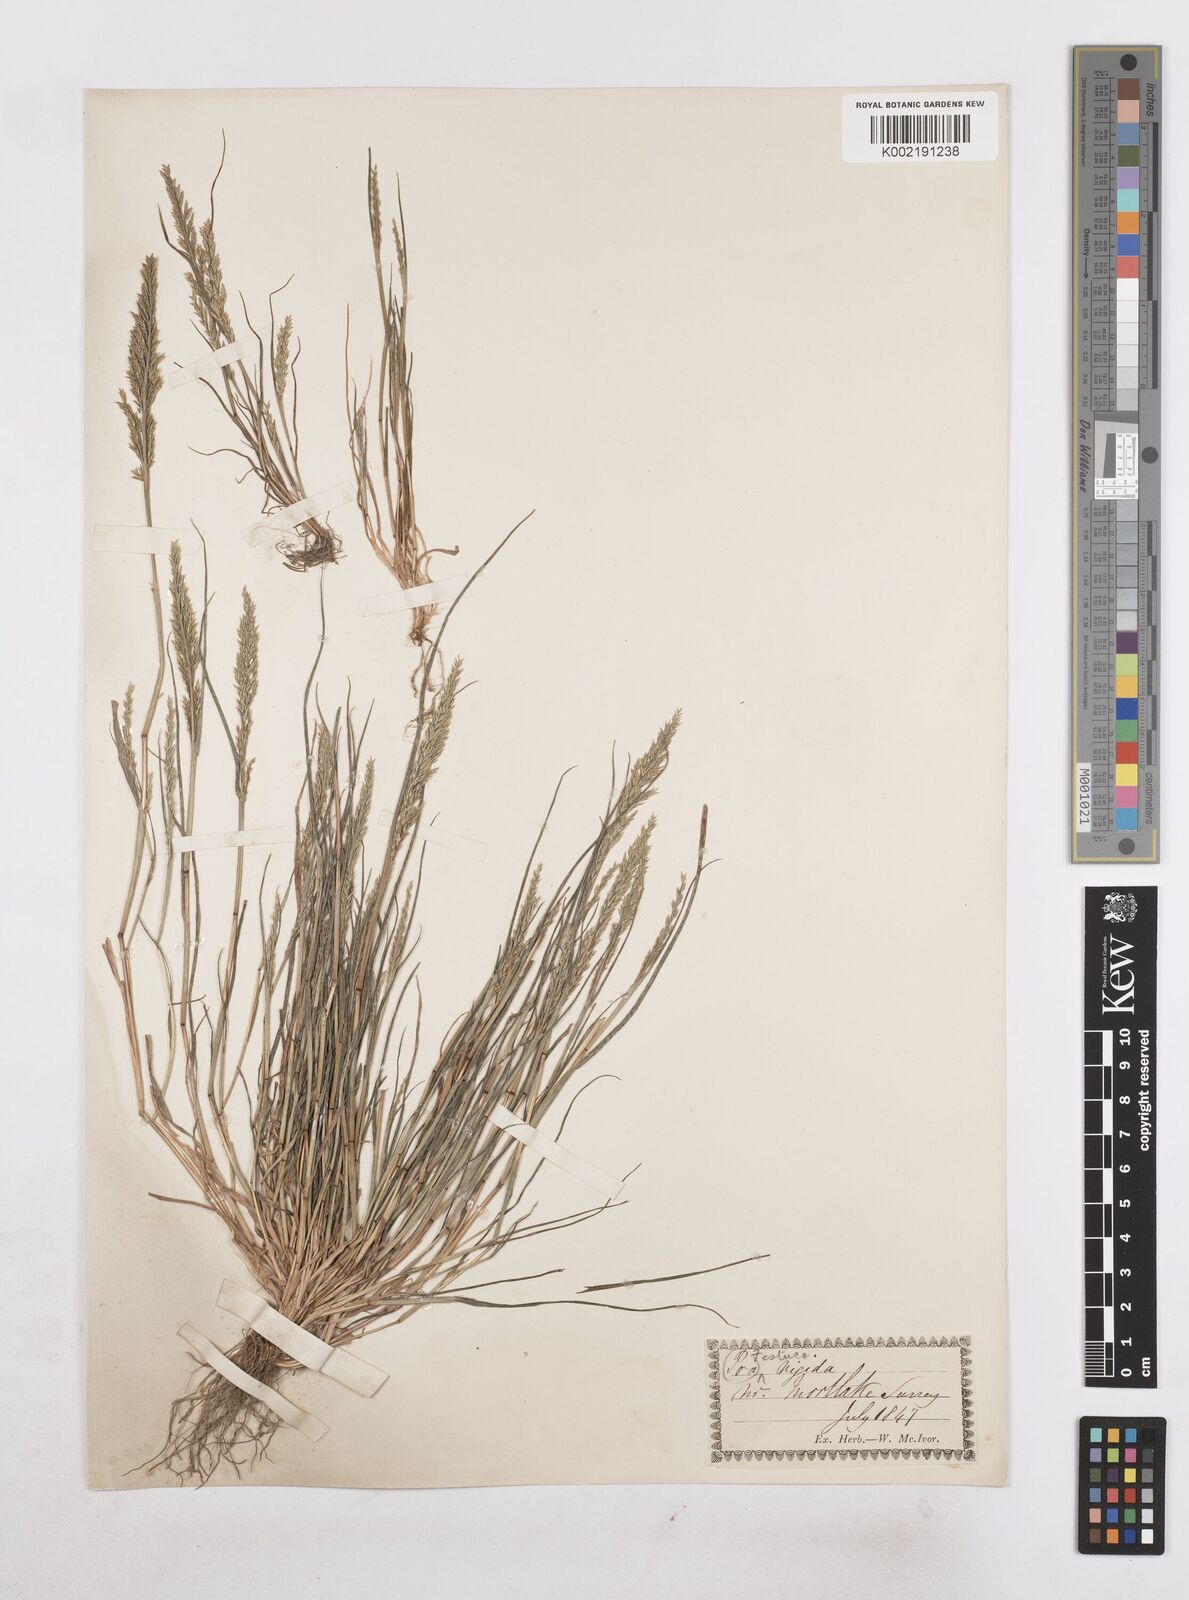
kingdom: Plantae
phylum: Tracheophyta
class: Liliopsida
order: Poales
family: Poaceae
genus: Catapodium
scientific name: Catapodium rigidum
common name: Fern-grass
